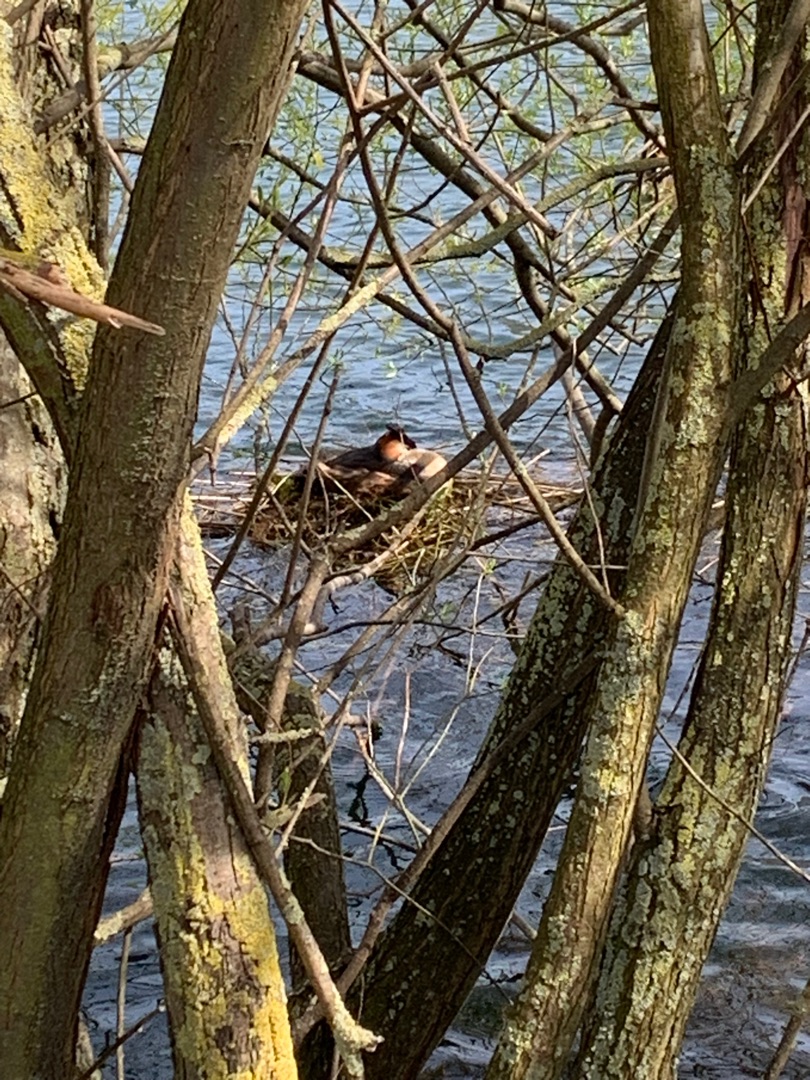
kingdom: Animalia
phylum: Chordata
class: Aves
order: Podicipediformes
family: Podicipedidae
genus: Podiceps
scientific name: Podiceps cristatus
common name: Toppet lappedykker
